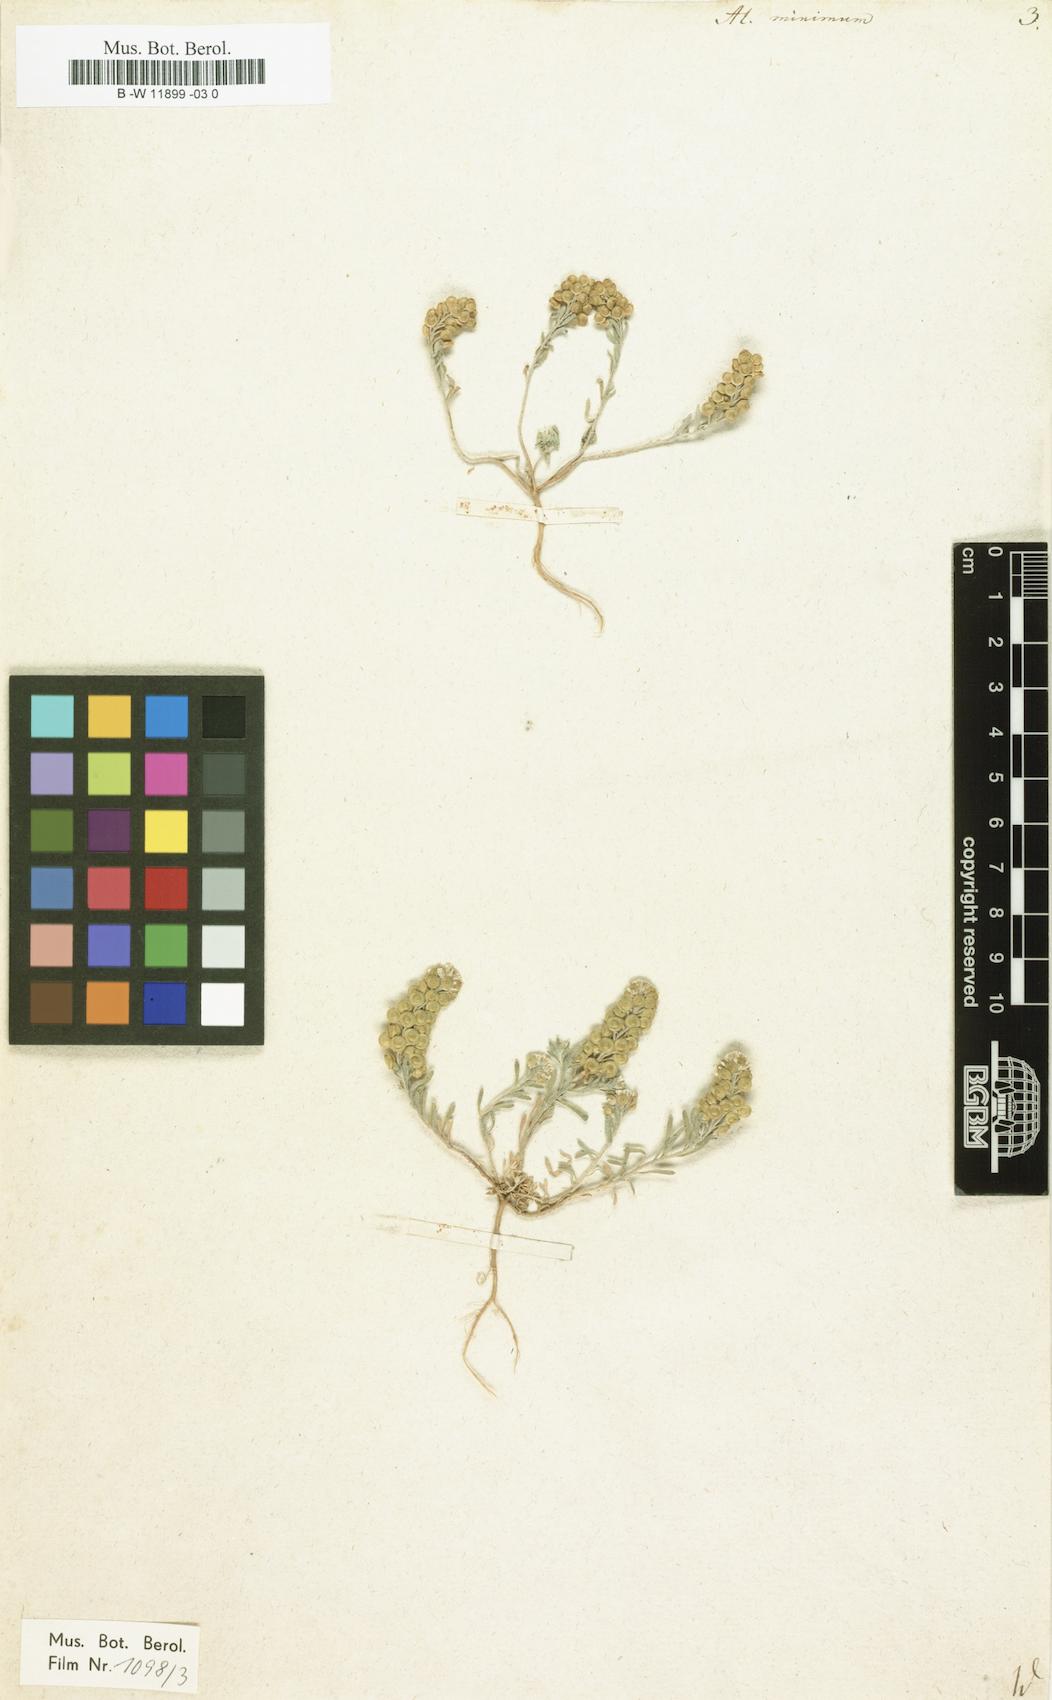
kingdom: Plantae
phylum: Tracheophyta
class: Magnoliopsida
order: Brassicales
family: Brassicaceae
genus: Alyssum
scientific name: Alyssum turkestanicum
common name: Desert alyssum
